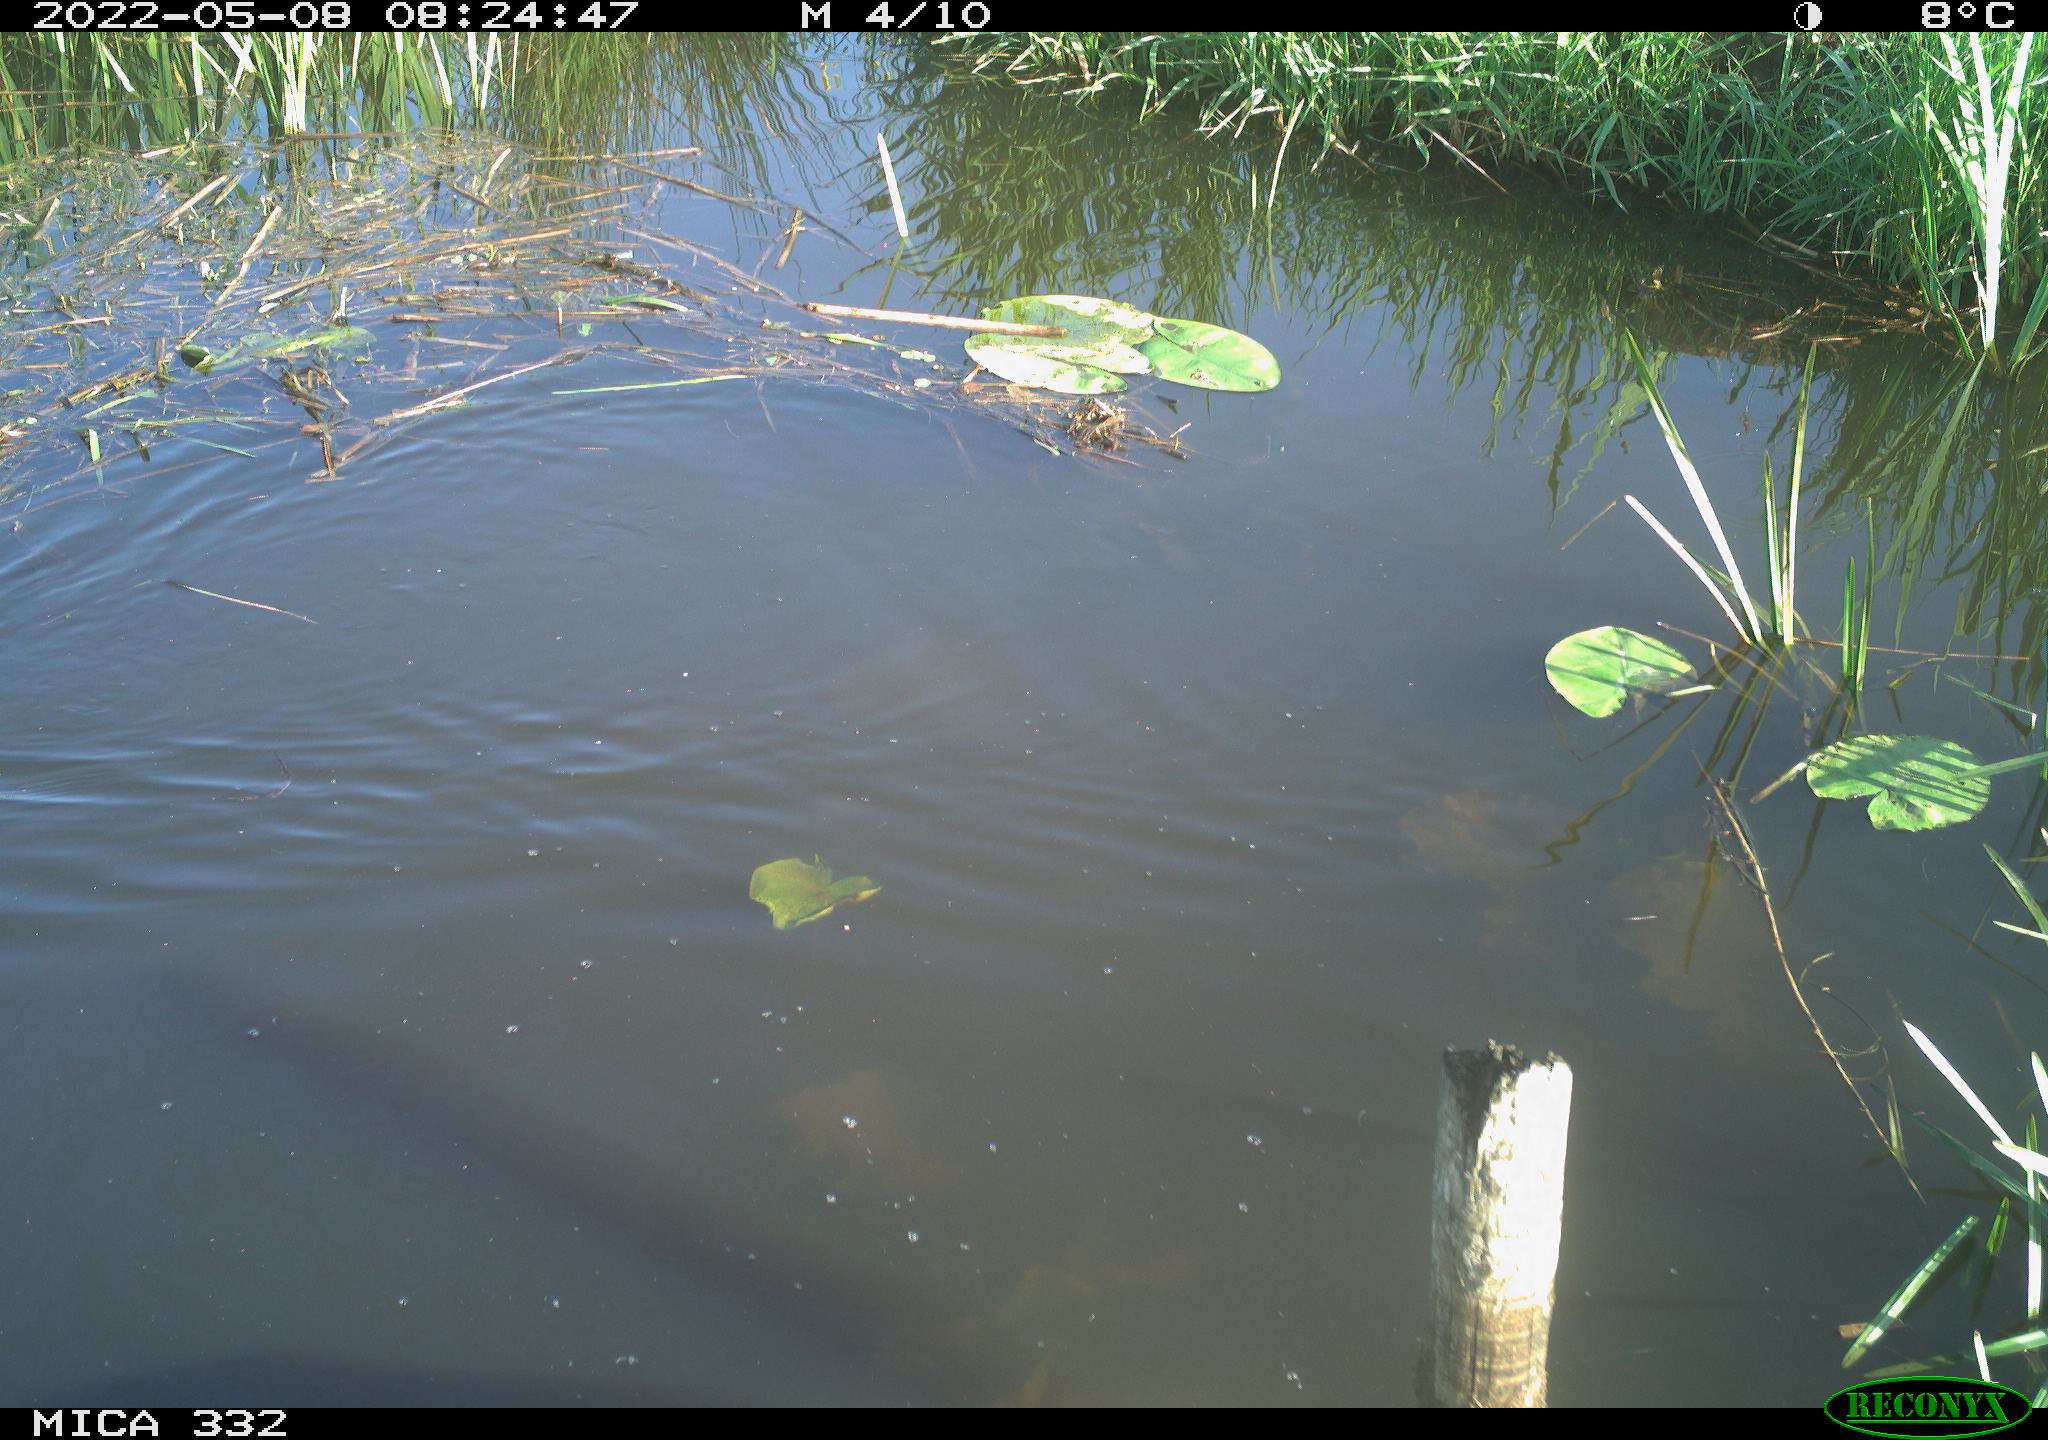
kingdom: Animalia
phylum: Chordata
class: Aves
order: Anseriformes
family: Anatidae
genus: Anas
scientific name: Anas platyrhynchos
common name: Mallard
